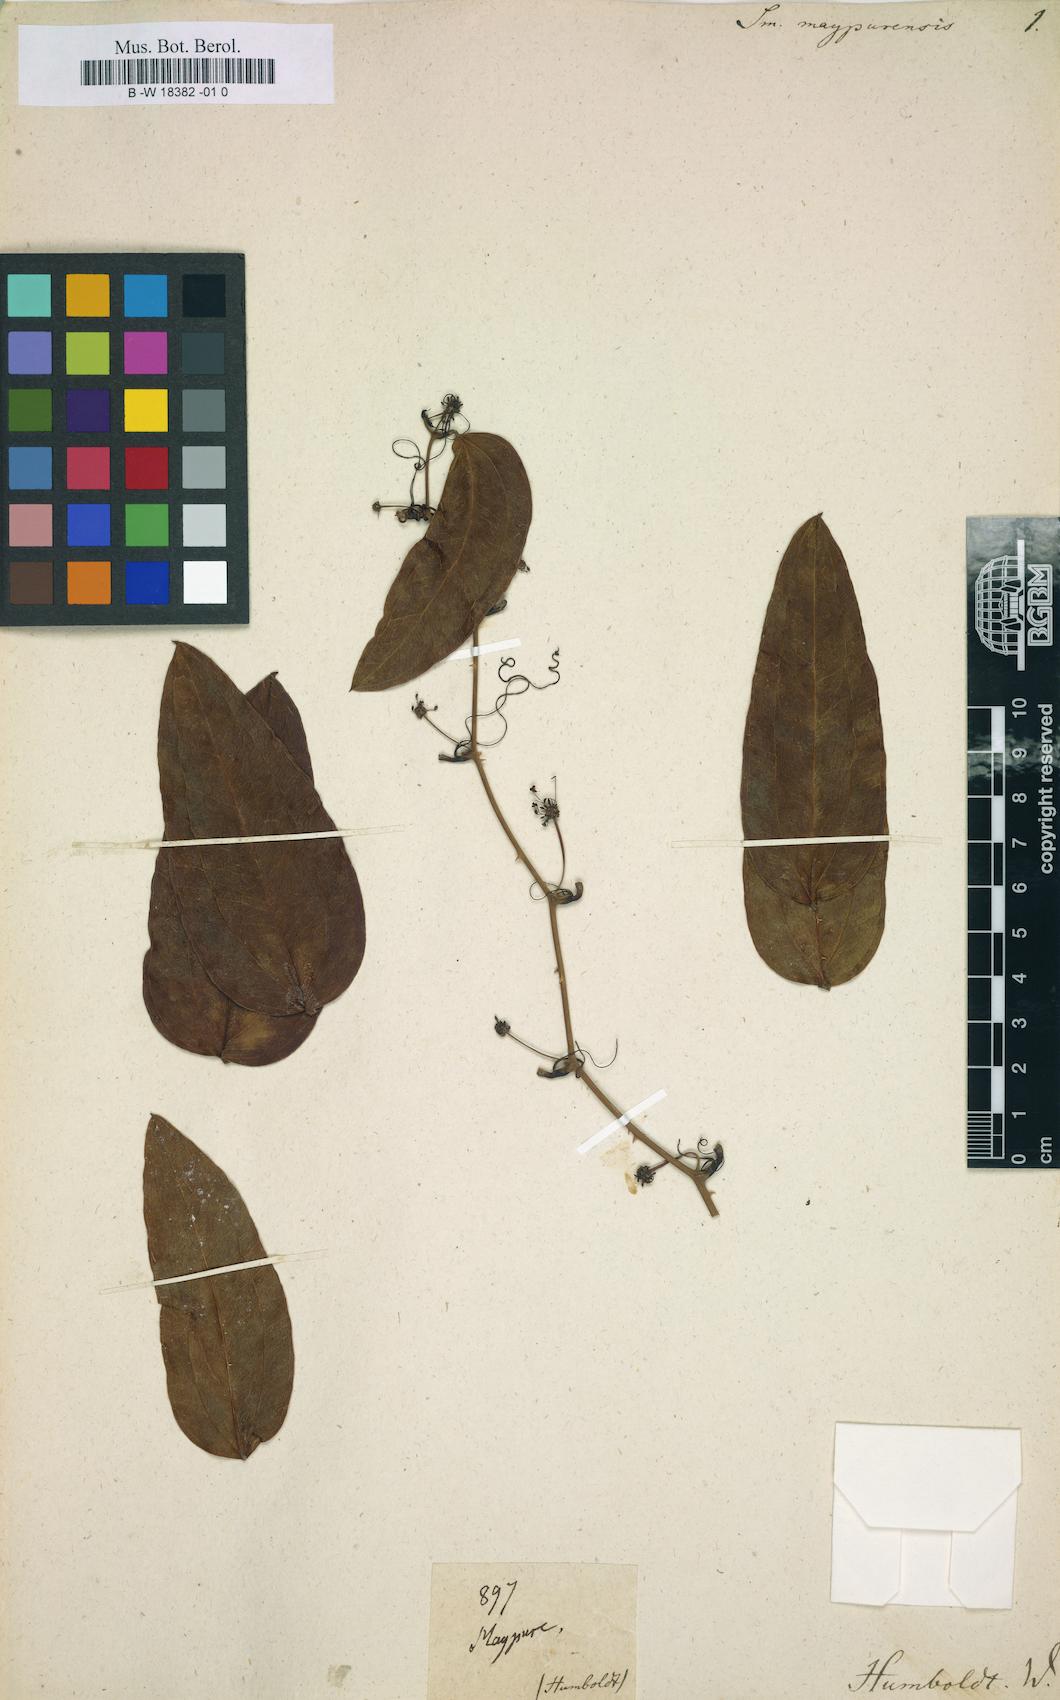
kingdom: Plantae
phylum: Tracheophyta
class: Liliopsida
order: Liliales
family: Smilacaceae
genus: Smilax
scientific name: Smilax maypurensis
